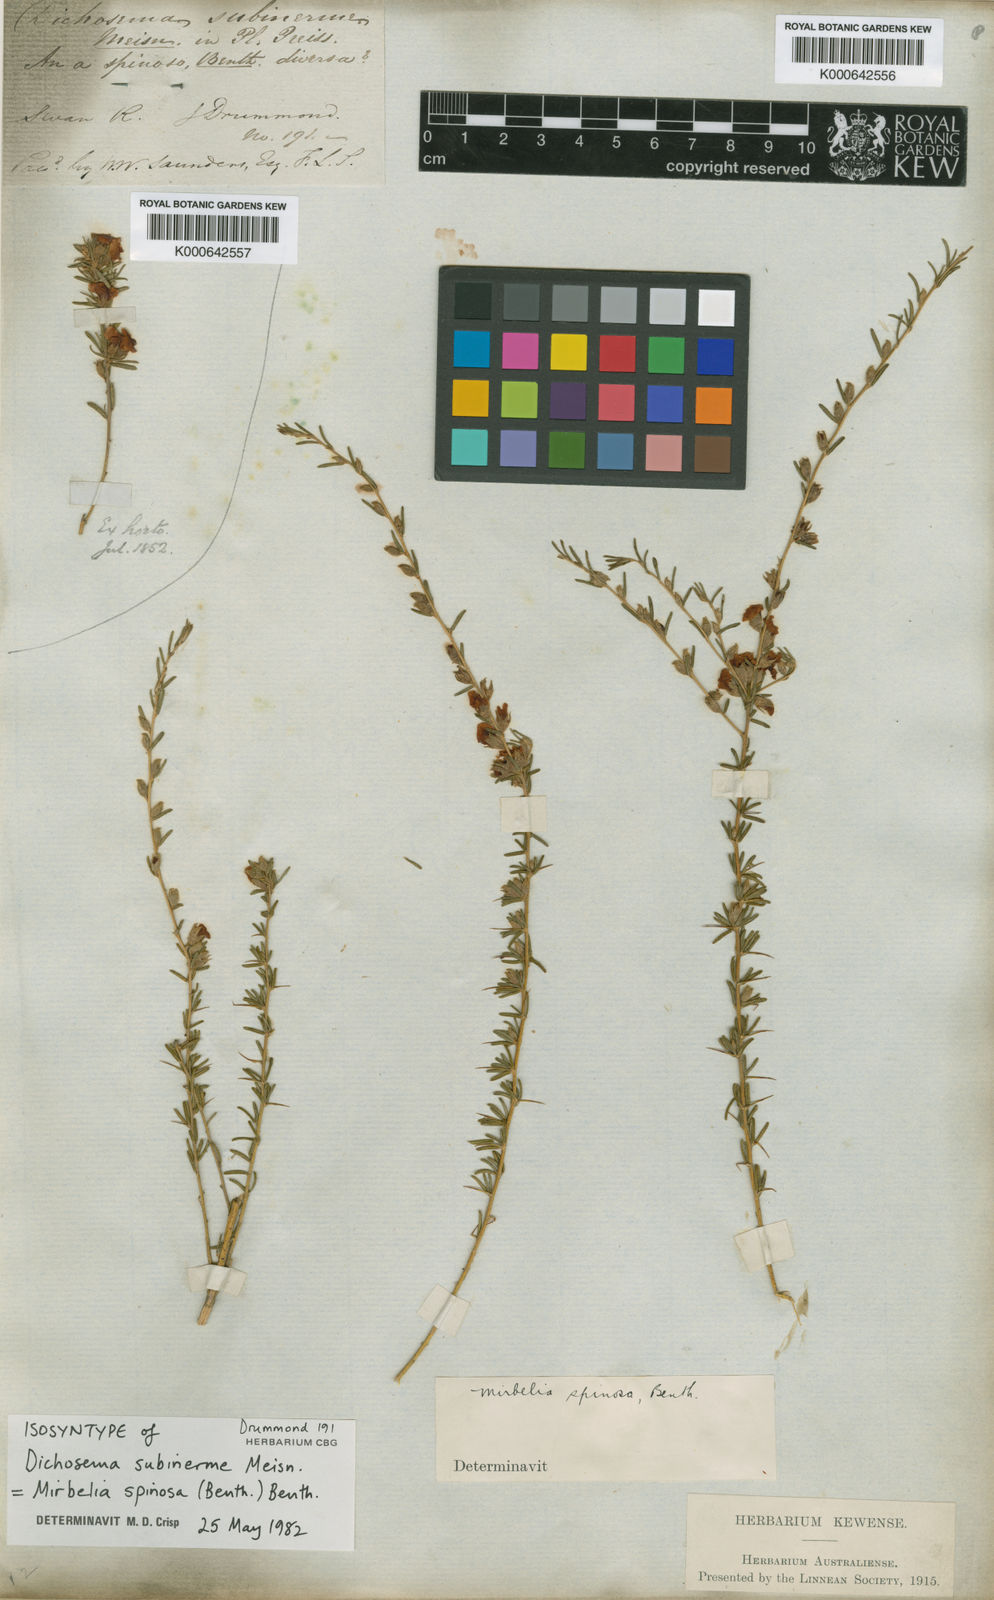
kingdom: Plantae
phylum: Tracheophyta
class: Magnoliopsida
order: Fabales
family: Fabaceae
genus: Mirbelia
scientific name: Mirbelia spinosa
